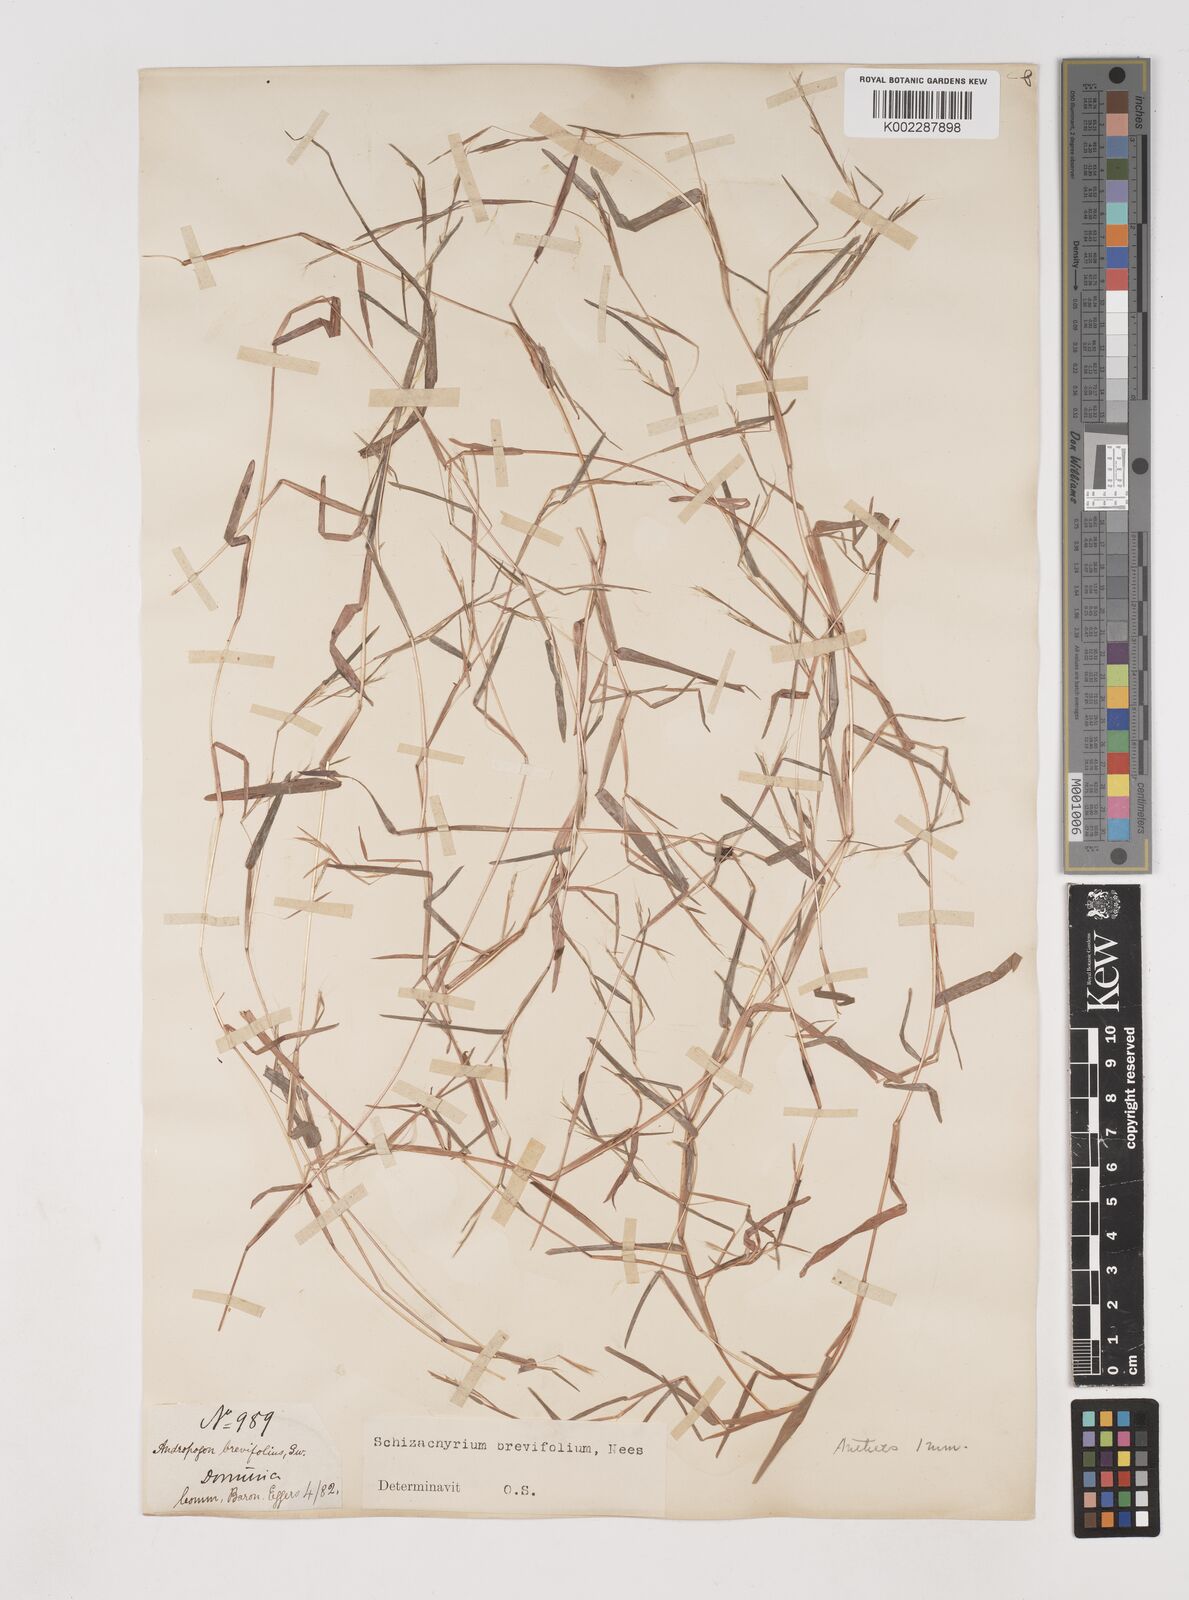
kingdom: Plantae
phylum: Tracheophyta
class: Liliopsida
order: Poales
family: Poaceae
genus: Schizachyrium
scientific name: Schizachyrium brevifolium
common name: Serillo dulce
